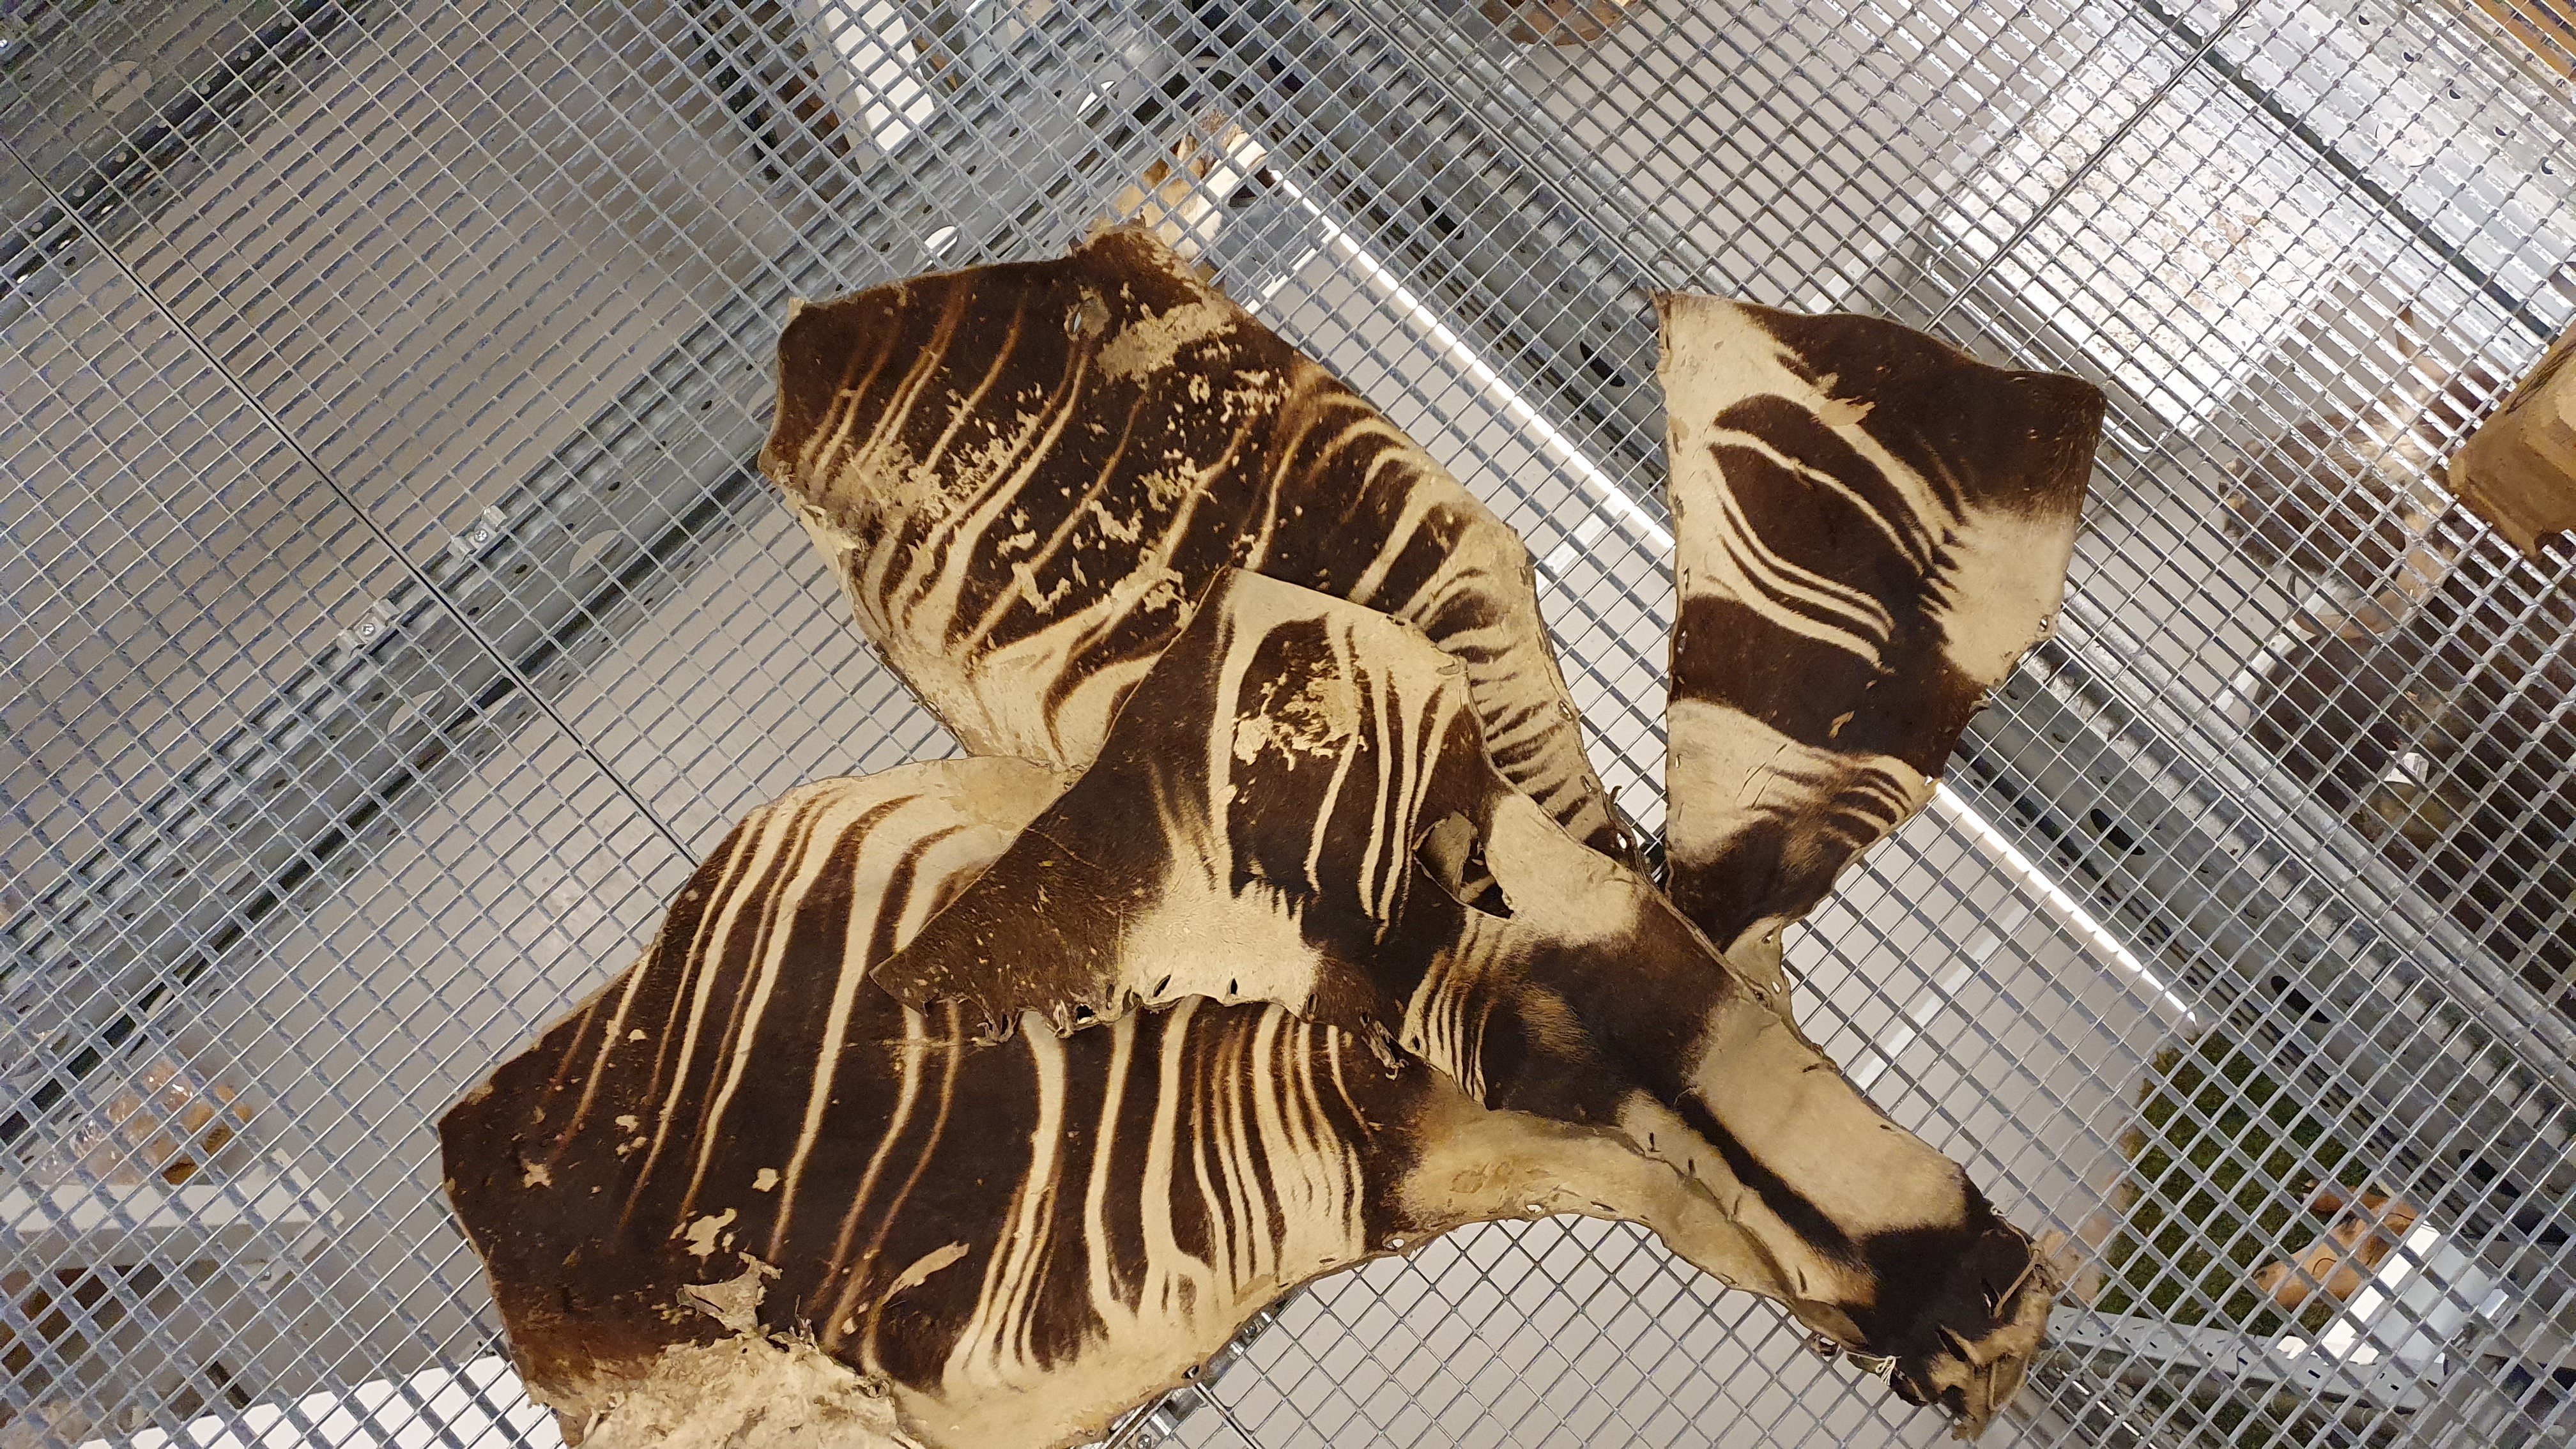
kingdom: Animalia
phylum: Chordata
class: Mammalia
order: Artiodactyla
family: Giraffidae
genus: Okapia
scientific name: Okapia johnstoni
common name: Okapi
